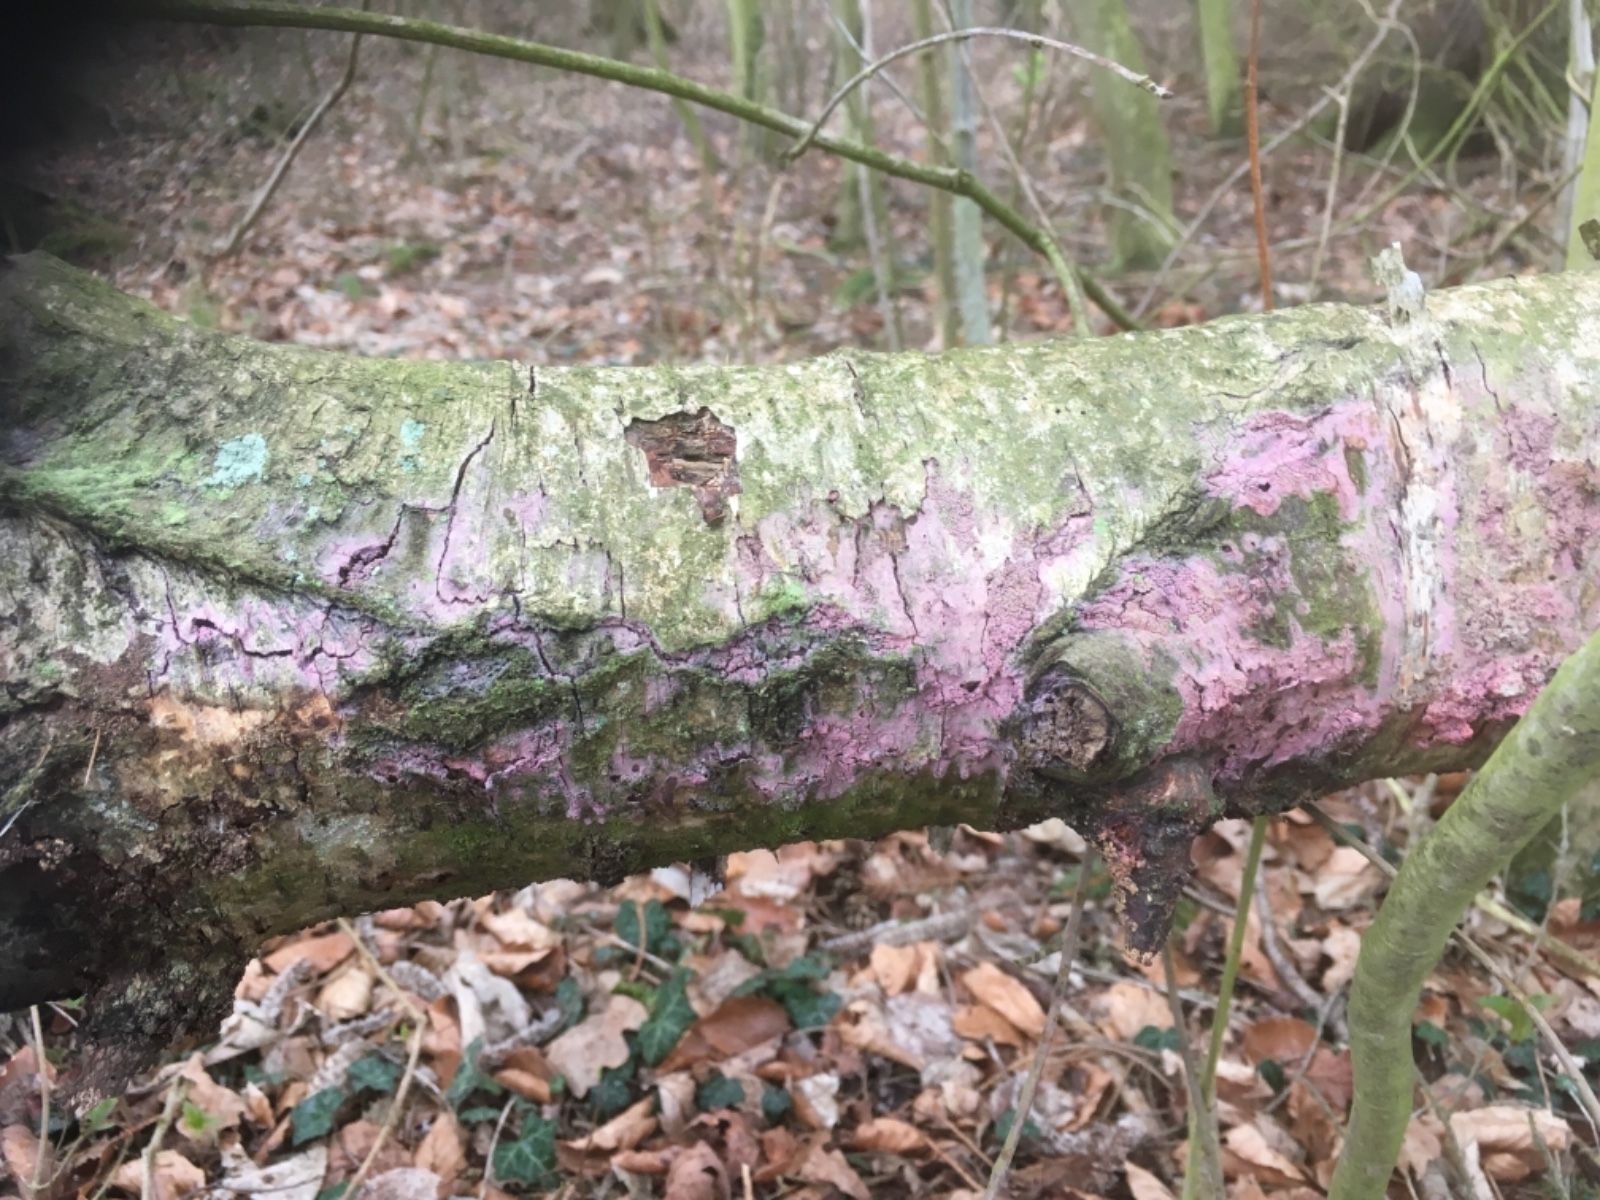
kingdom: Fungi
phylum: Basidiomycota
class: Agaricomycetes
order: Corticiales
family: Corticiaceae
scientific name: Corticiaceae
